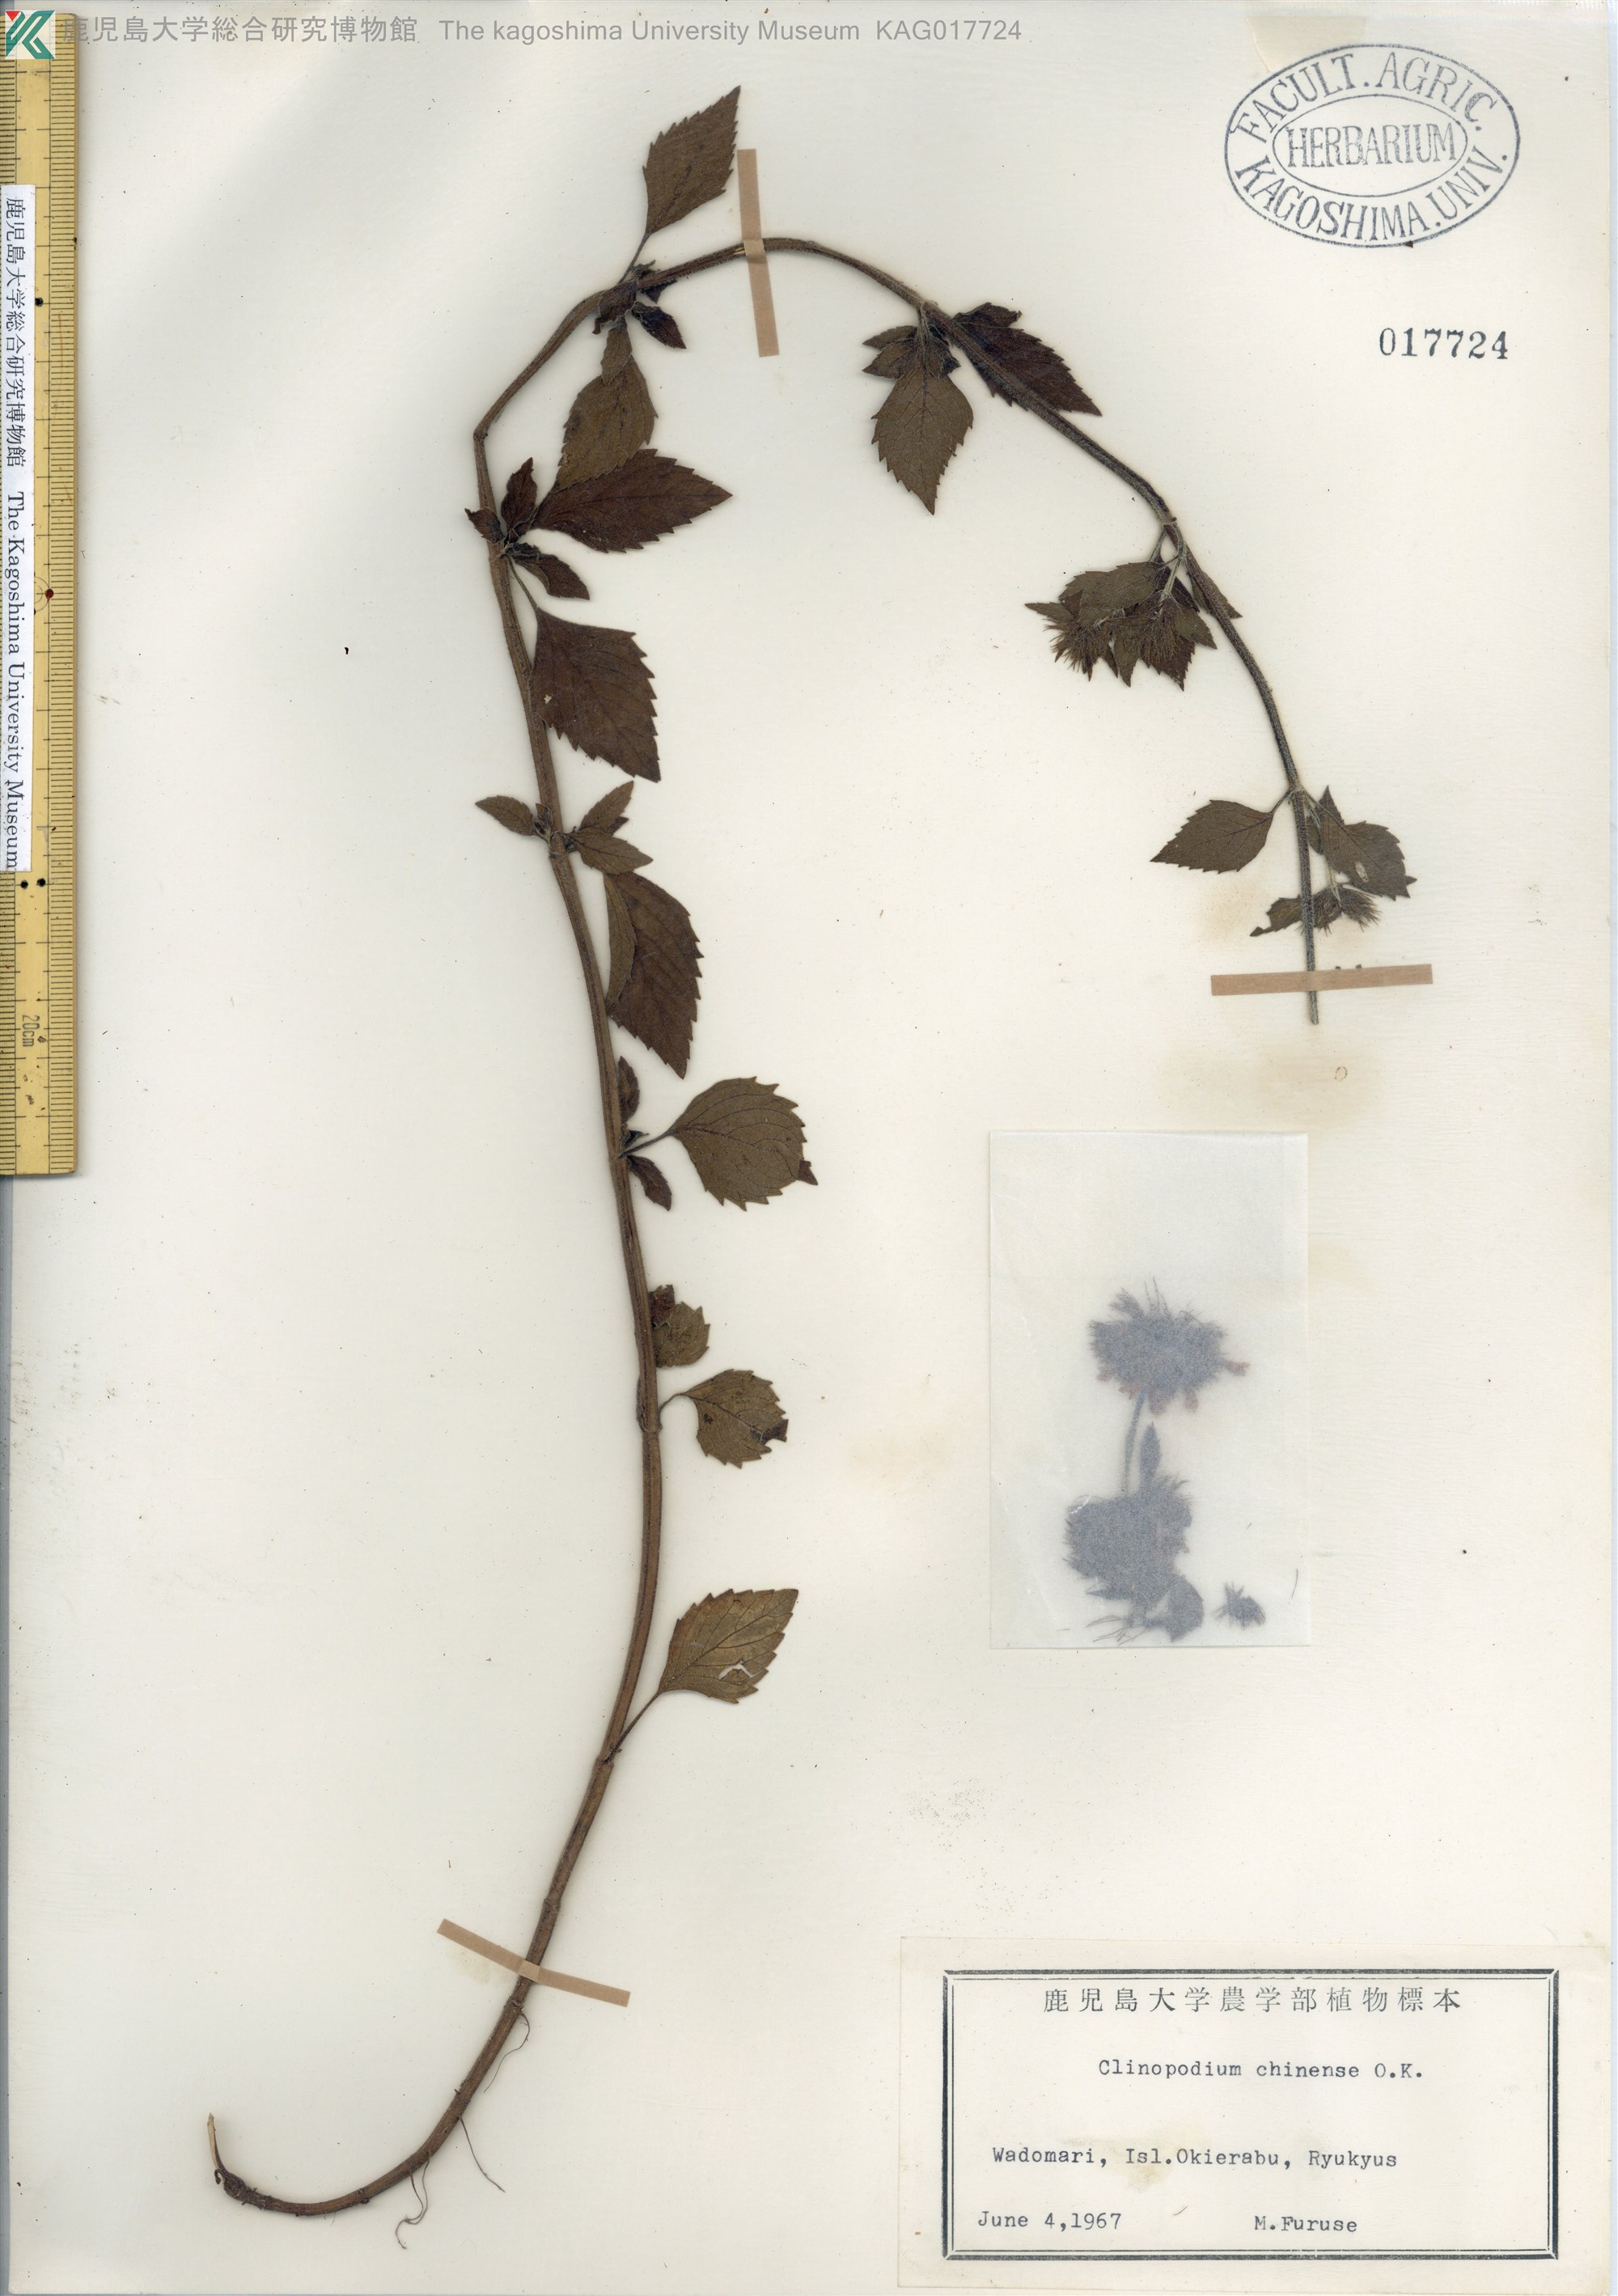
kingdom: Plantae
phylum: Tracheophyta
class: Magnoliopsida
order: Lamiales
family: Lamiaceae
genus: Clinopodium
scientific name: Clinopodium chinense
